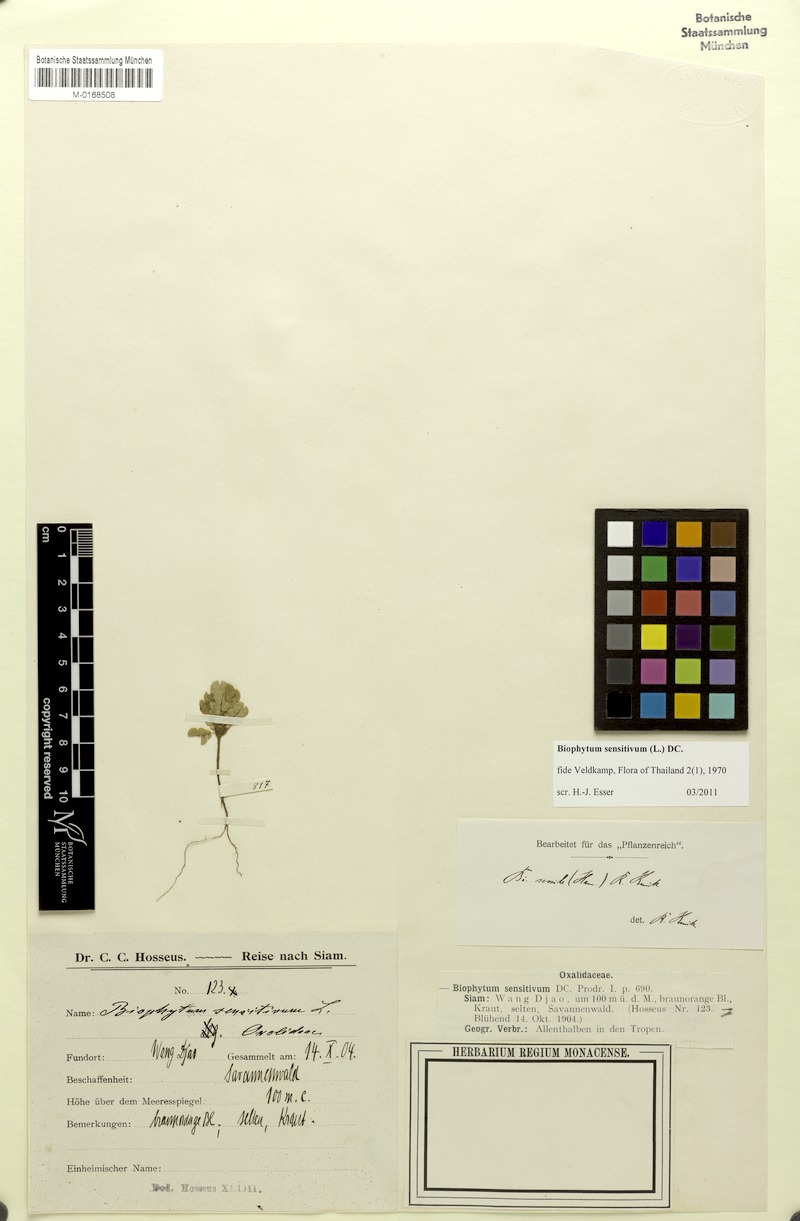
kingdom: Plantae
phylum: Tracheophyta
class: Magnoliopsida
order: Oxalidales
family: Oxalidaceae
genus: Biophytum
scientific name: Biophytum sensitivum
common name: Lifeplant
